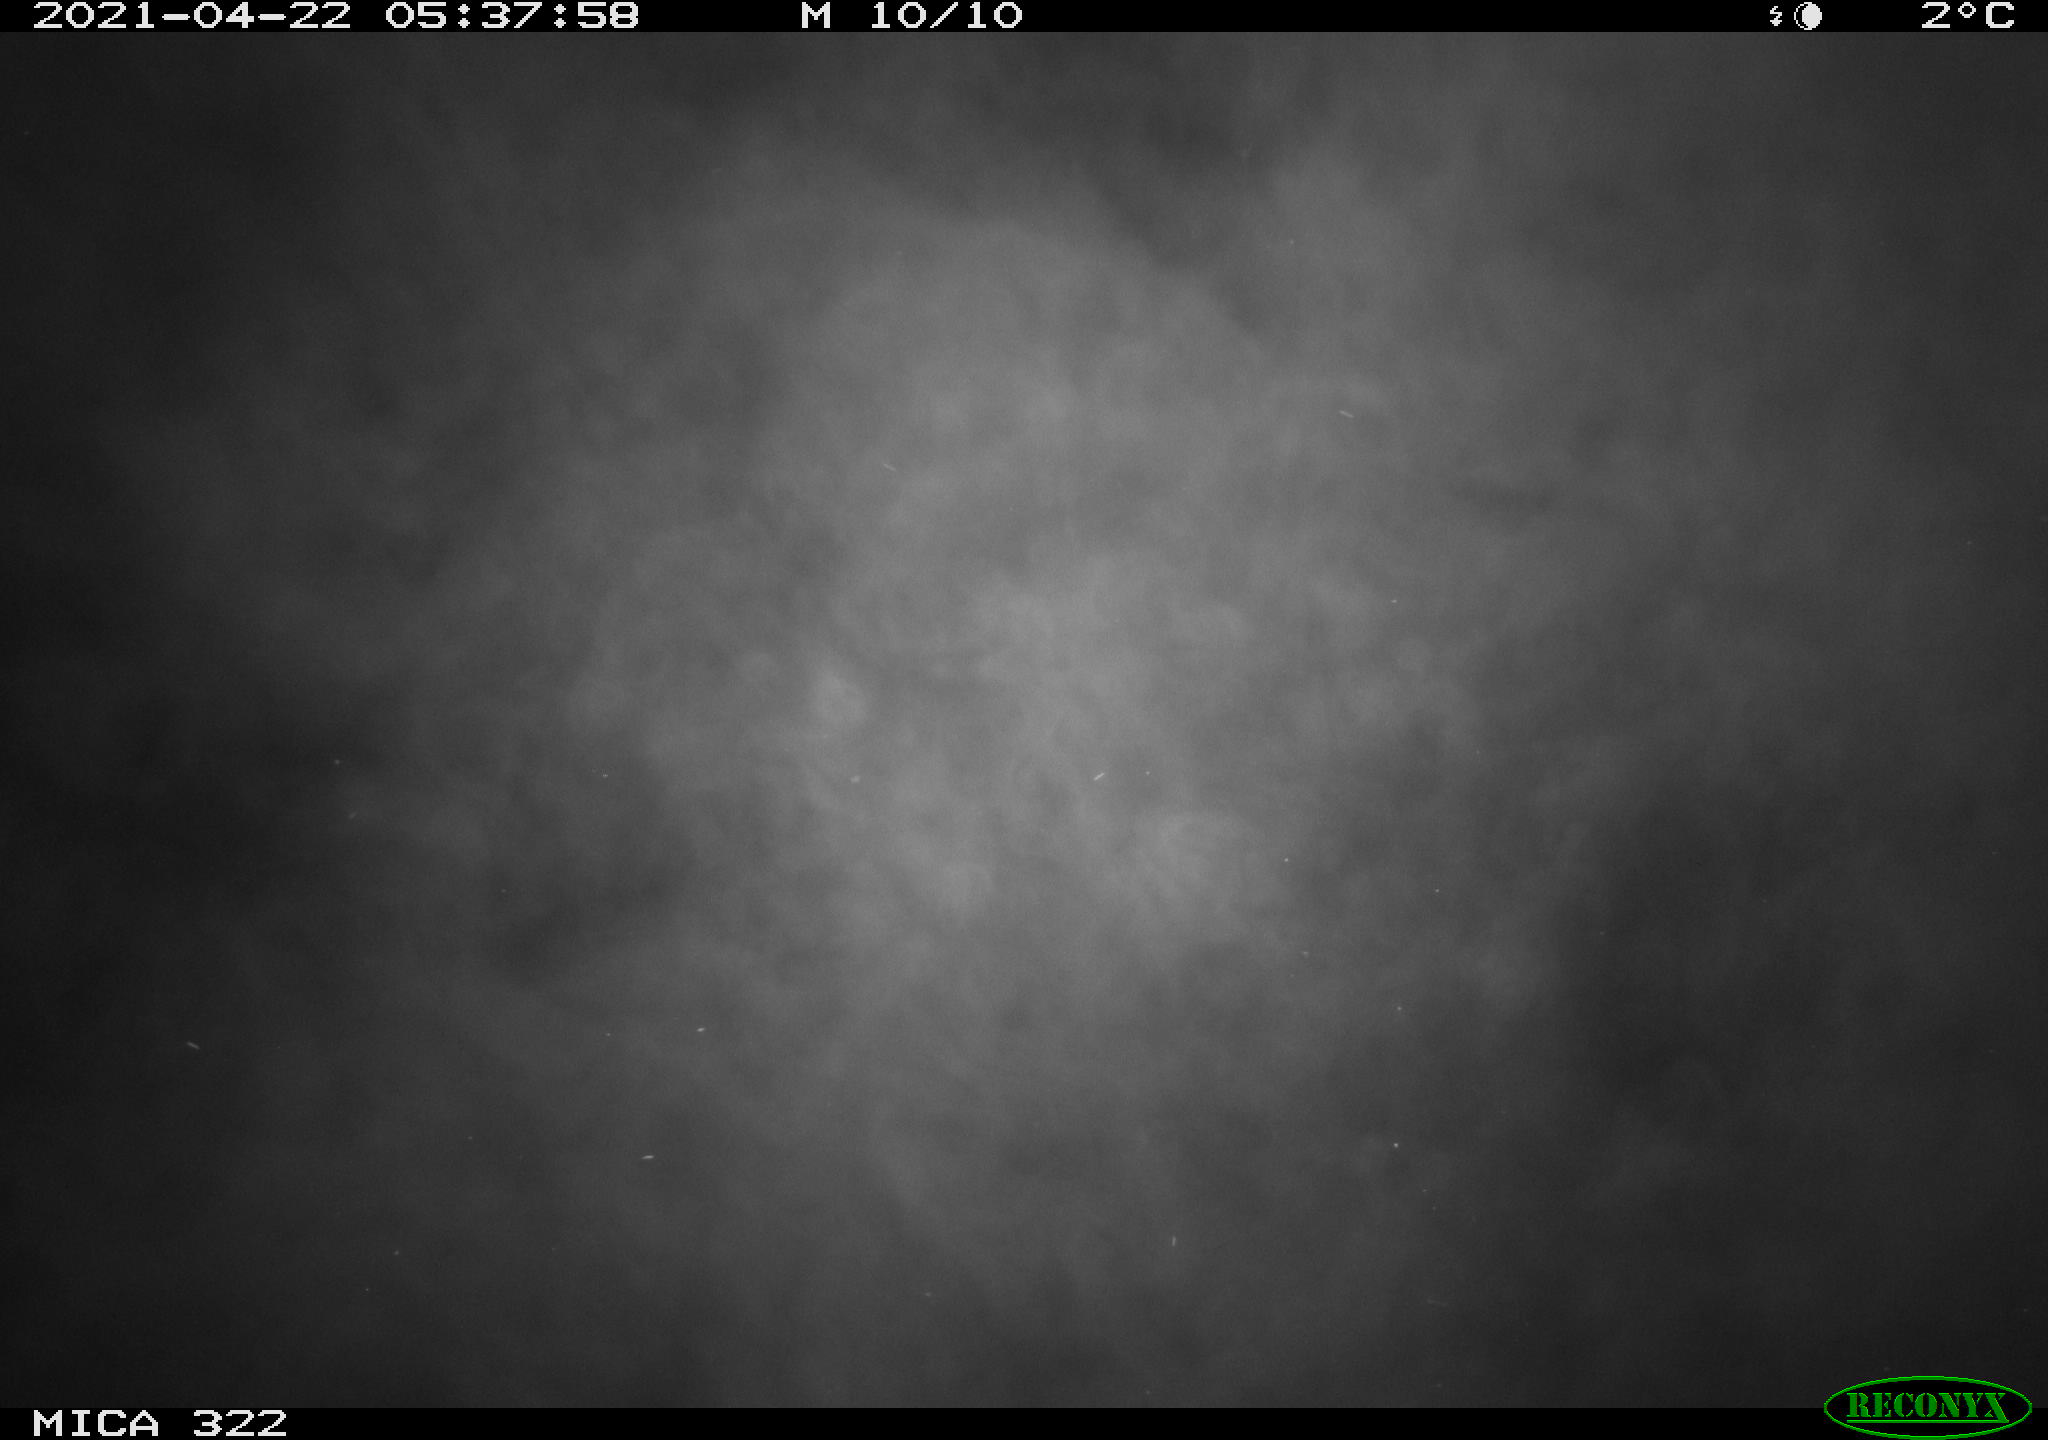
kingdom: Animalia
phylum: Chordata
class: Aves
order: Gruiformes
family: Rallidae
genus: Fulica
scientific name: Fulica atra
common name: Eurasian coot
